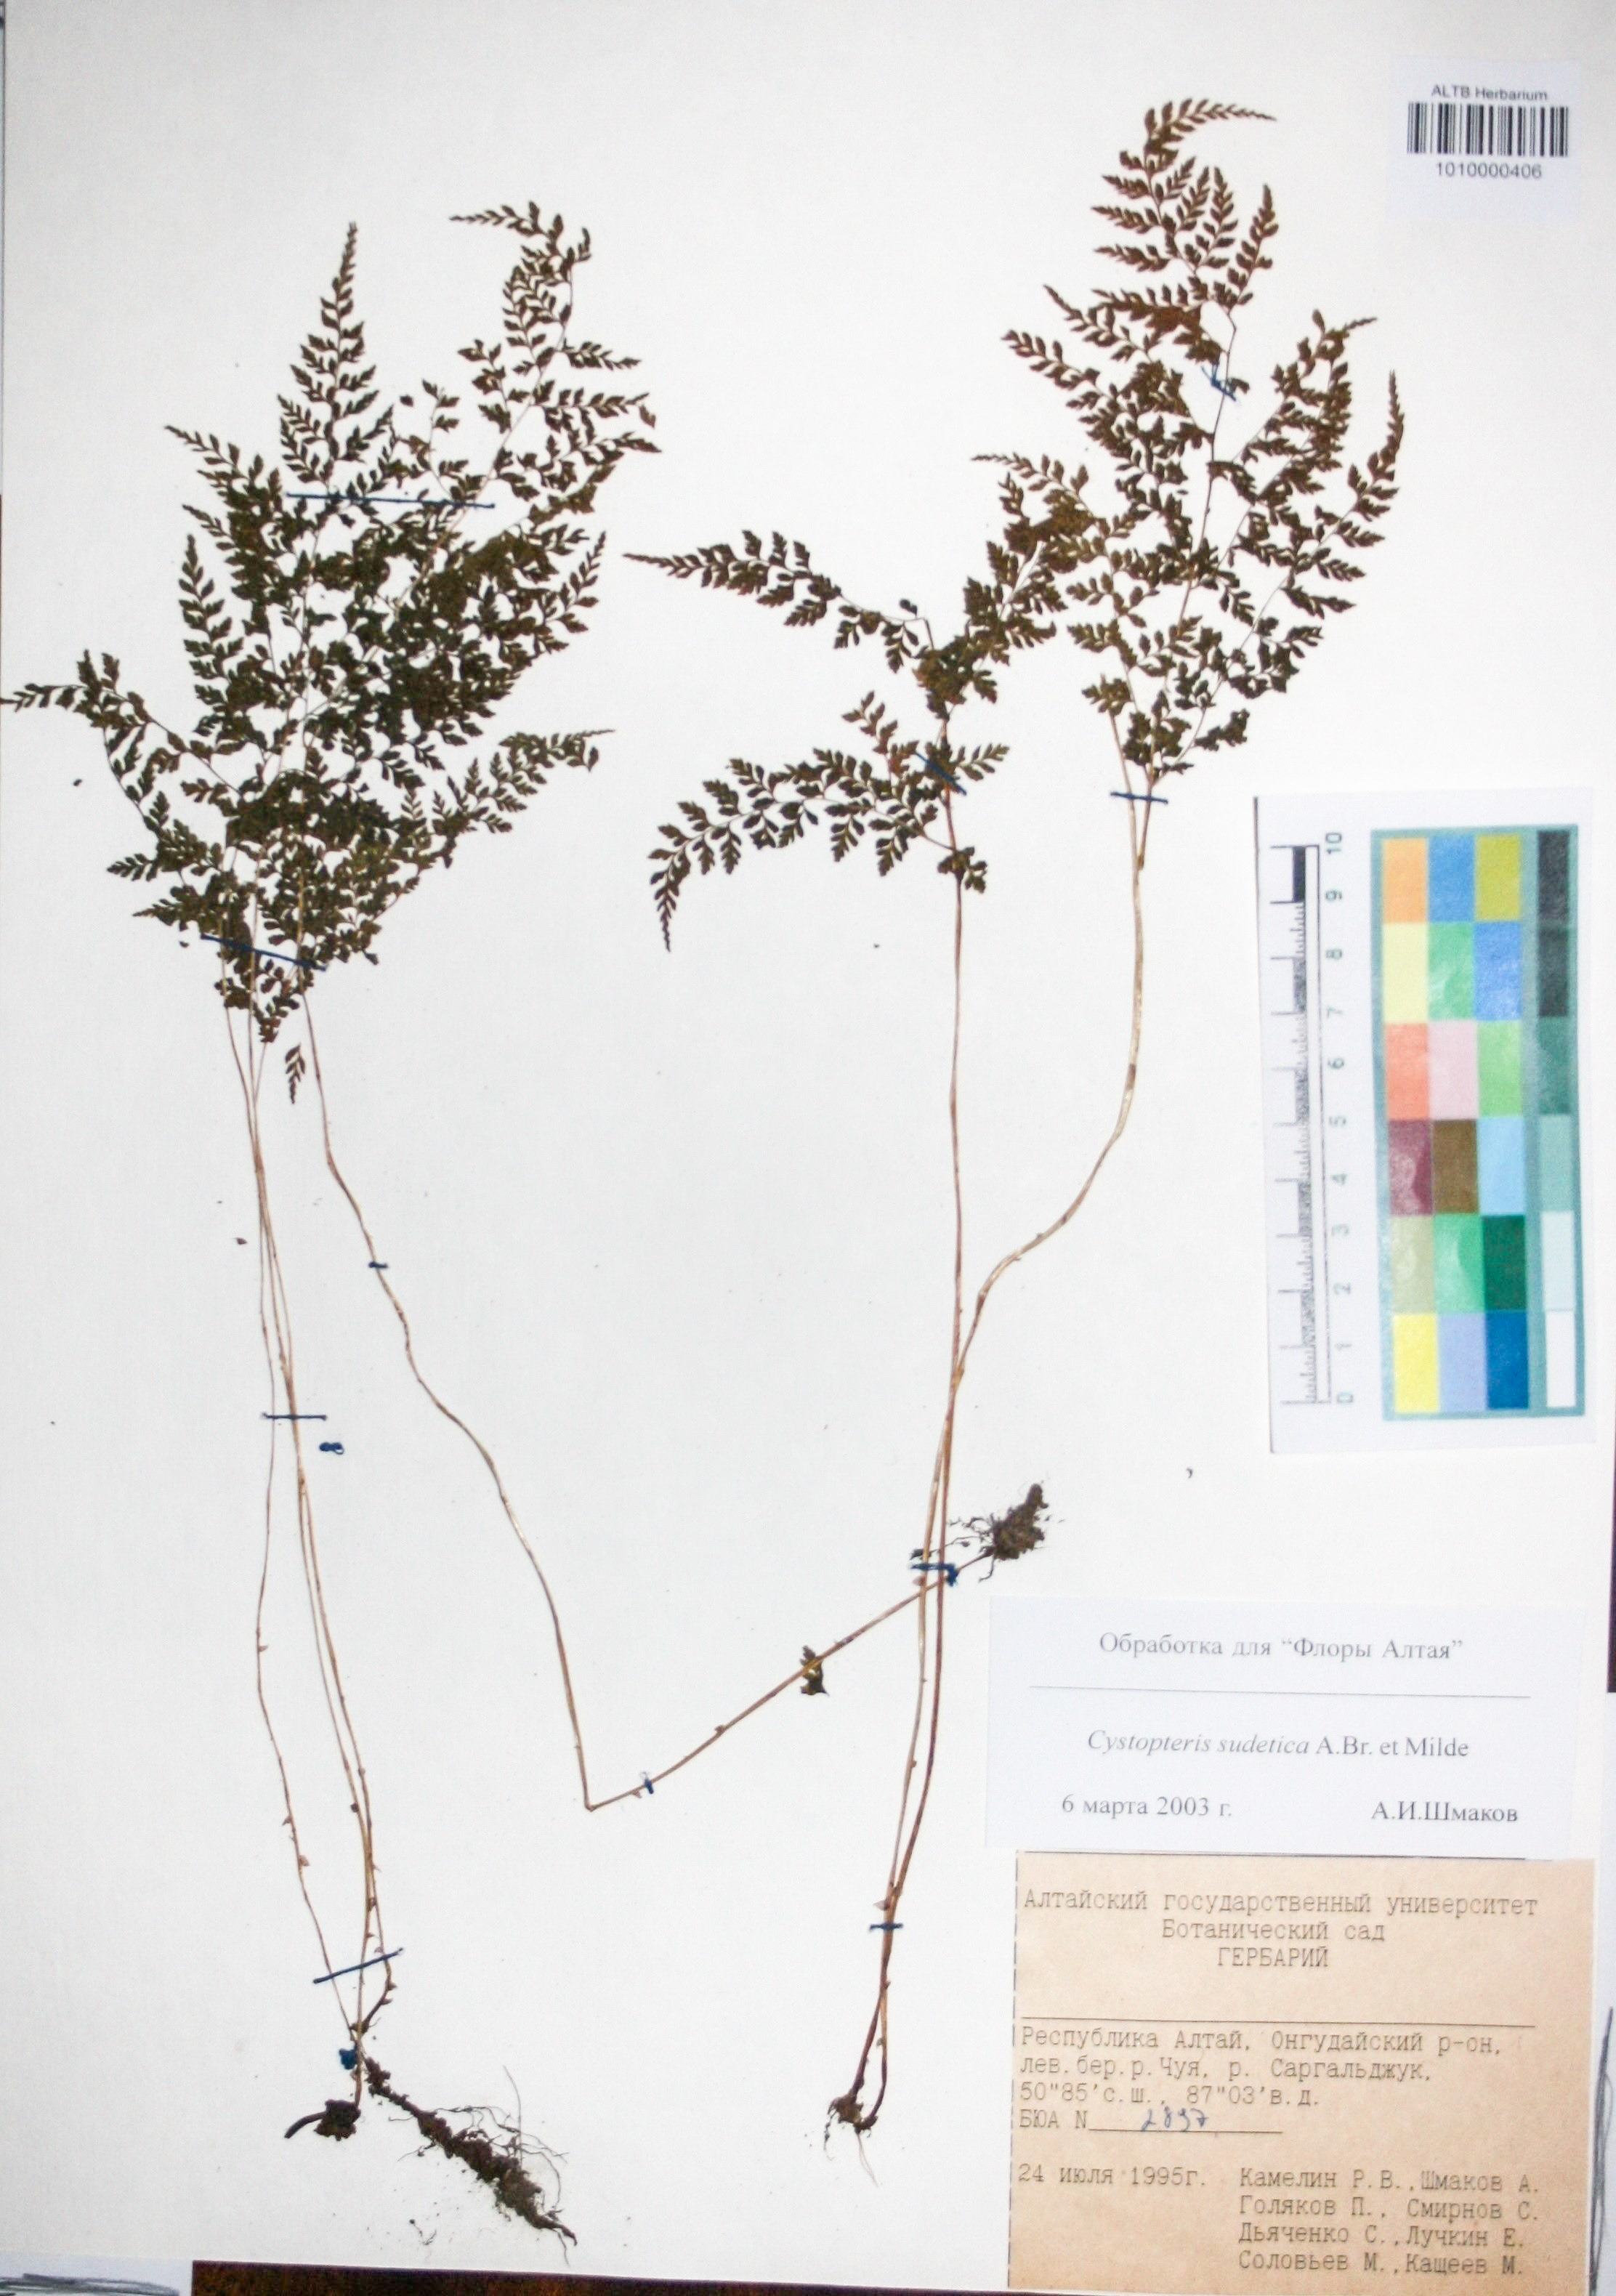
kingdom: Plantae
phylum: Tracheophyta
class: Polypodiopsida
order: Polypodiales
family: Cystopteridaceae
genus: Cystopteris
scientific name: Cystopteris sudetica
